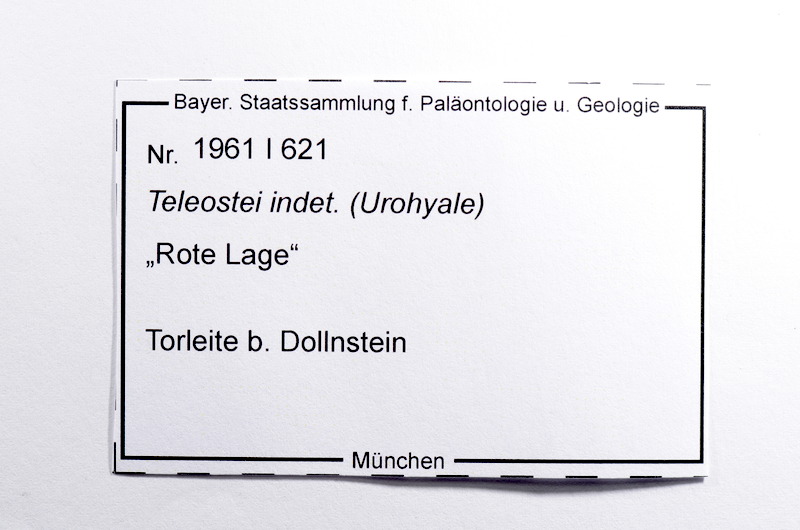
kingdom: Animalia
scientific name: Animalia
